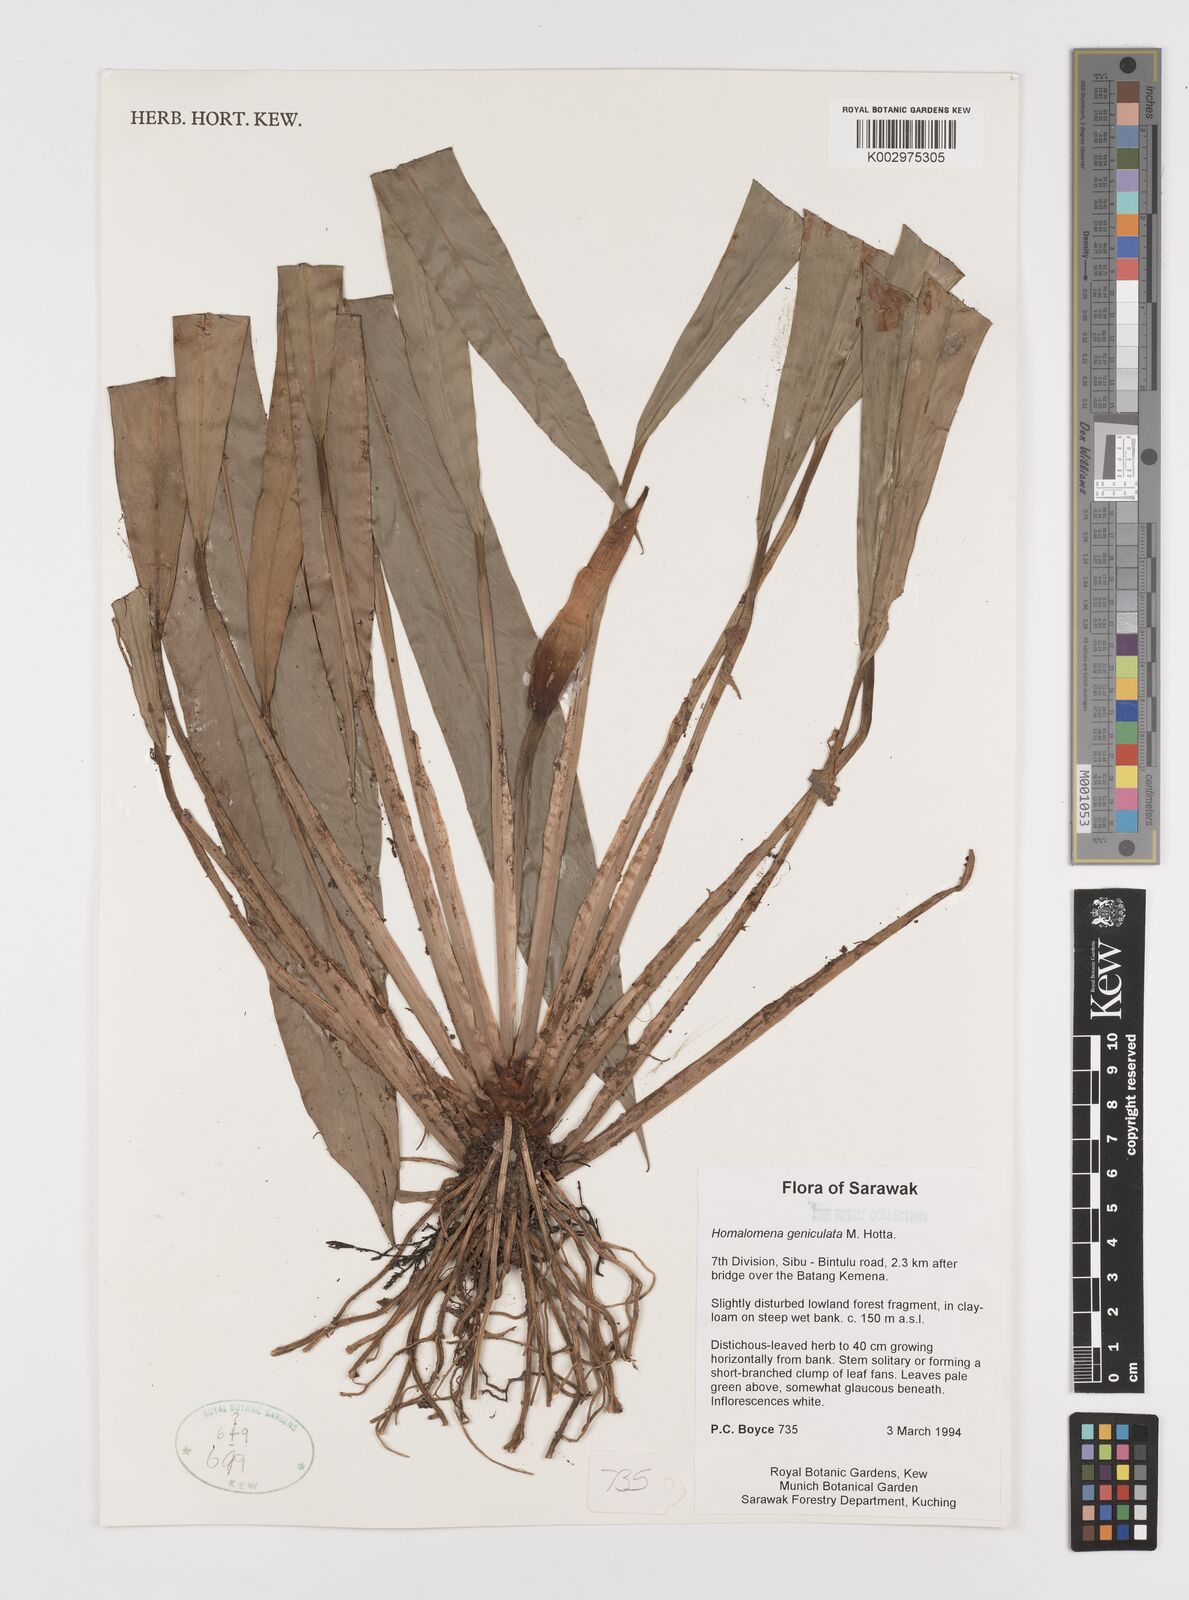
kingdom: Plantae
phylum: Tracheophyta
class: Liliopsida
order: Alismatales
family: Araceae
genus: Homalomena
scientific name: Homalomena punctulata
